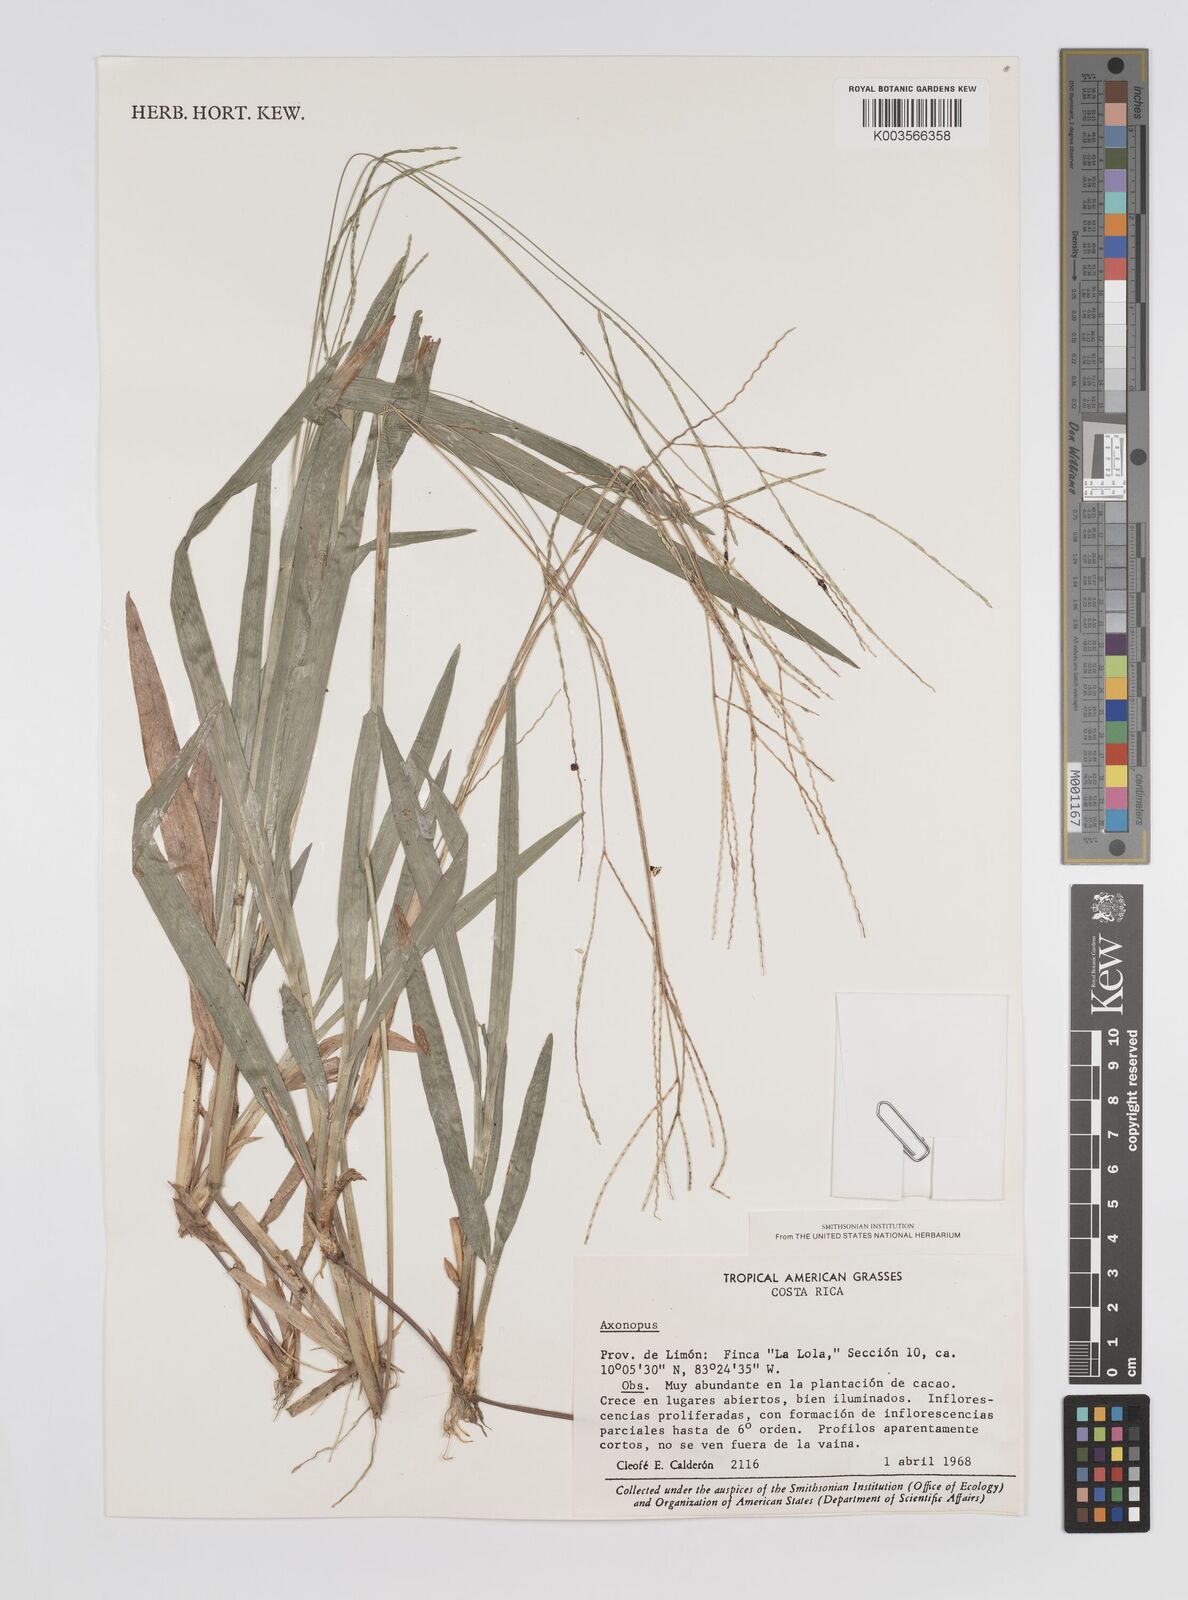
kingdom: Plantae
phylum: Tracheophyta
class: Liliopsida
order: Poales
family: Poaceae
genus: Axonopus
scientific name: Axonopus compressus
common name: American carpet grass
